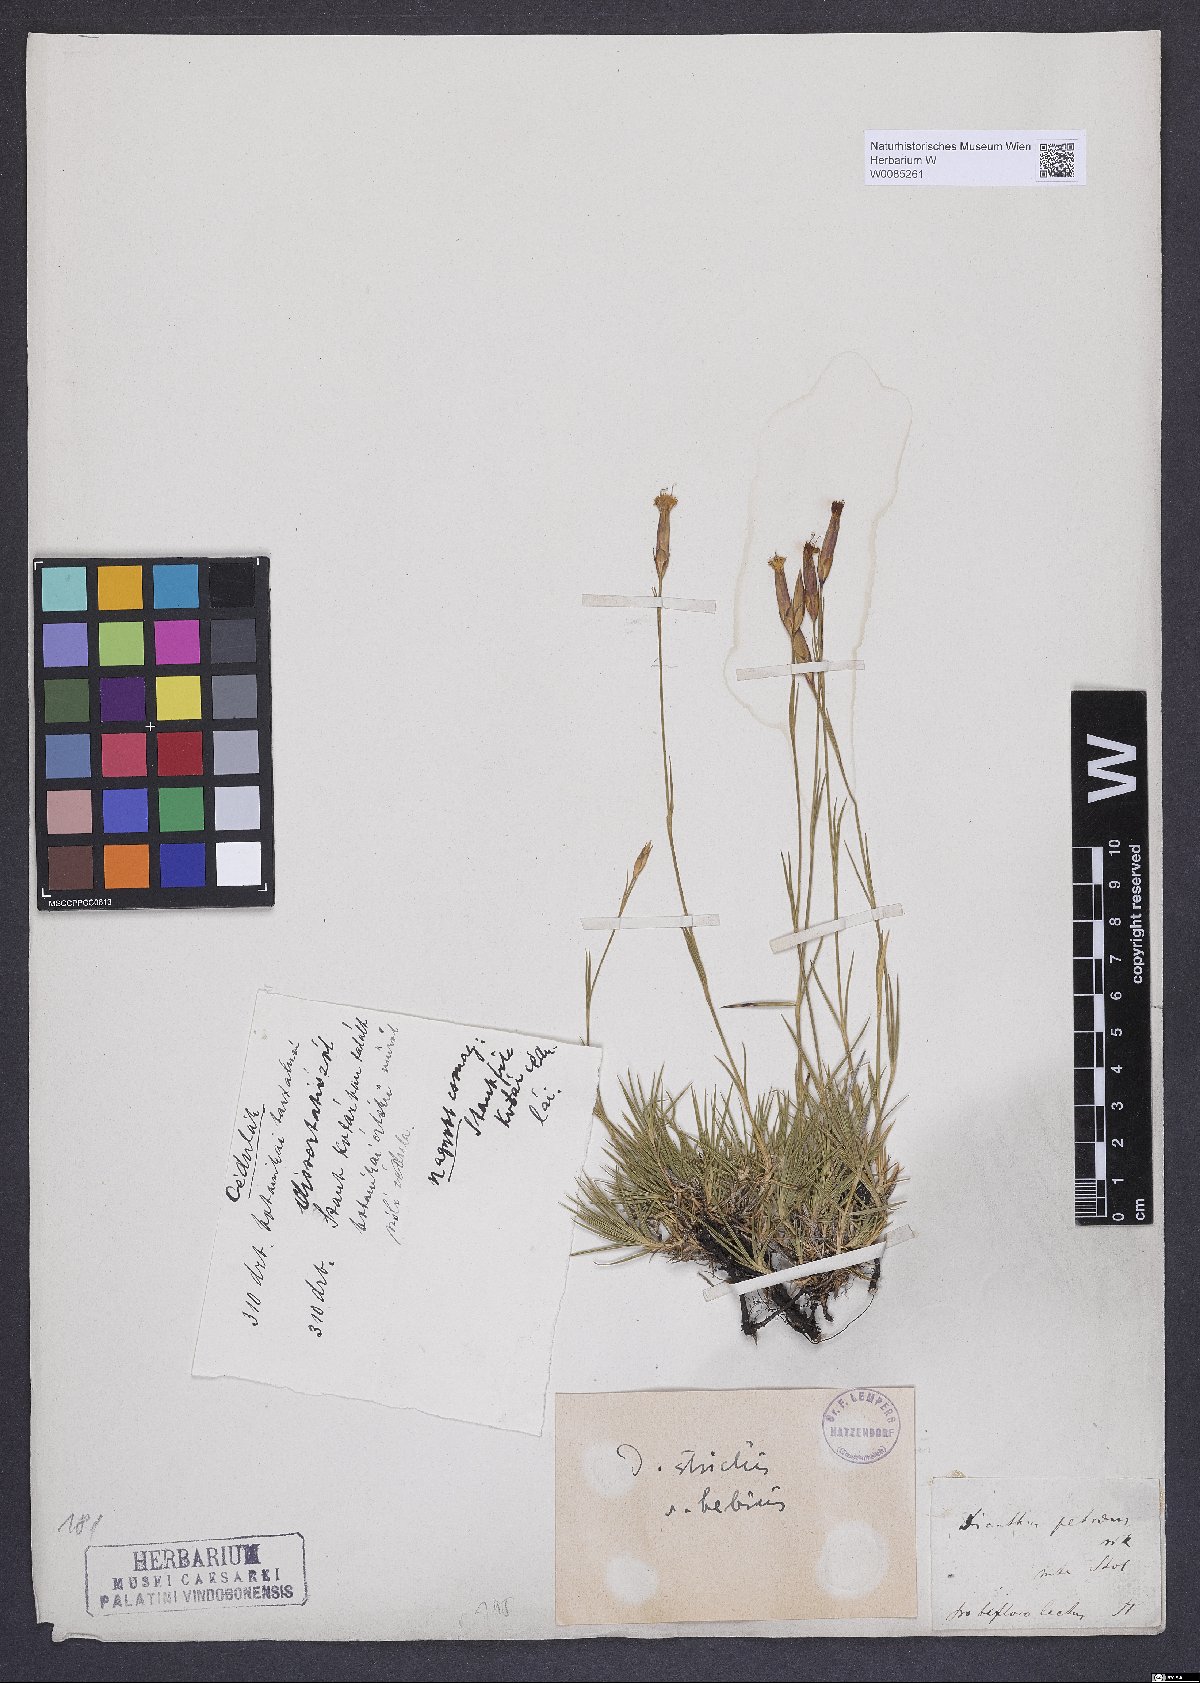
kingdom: Plantae
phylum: Tracheophyta
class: Magnoliopsida
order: Caryophyllales
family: Caryophyllaceae
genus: Dianthus
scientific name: Dianthus petraeus
